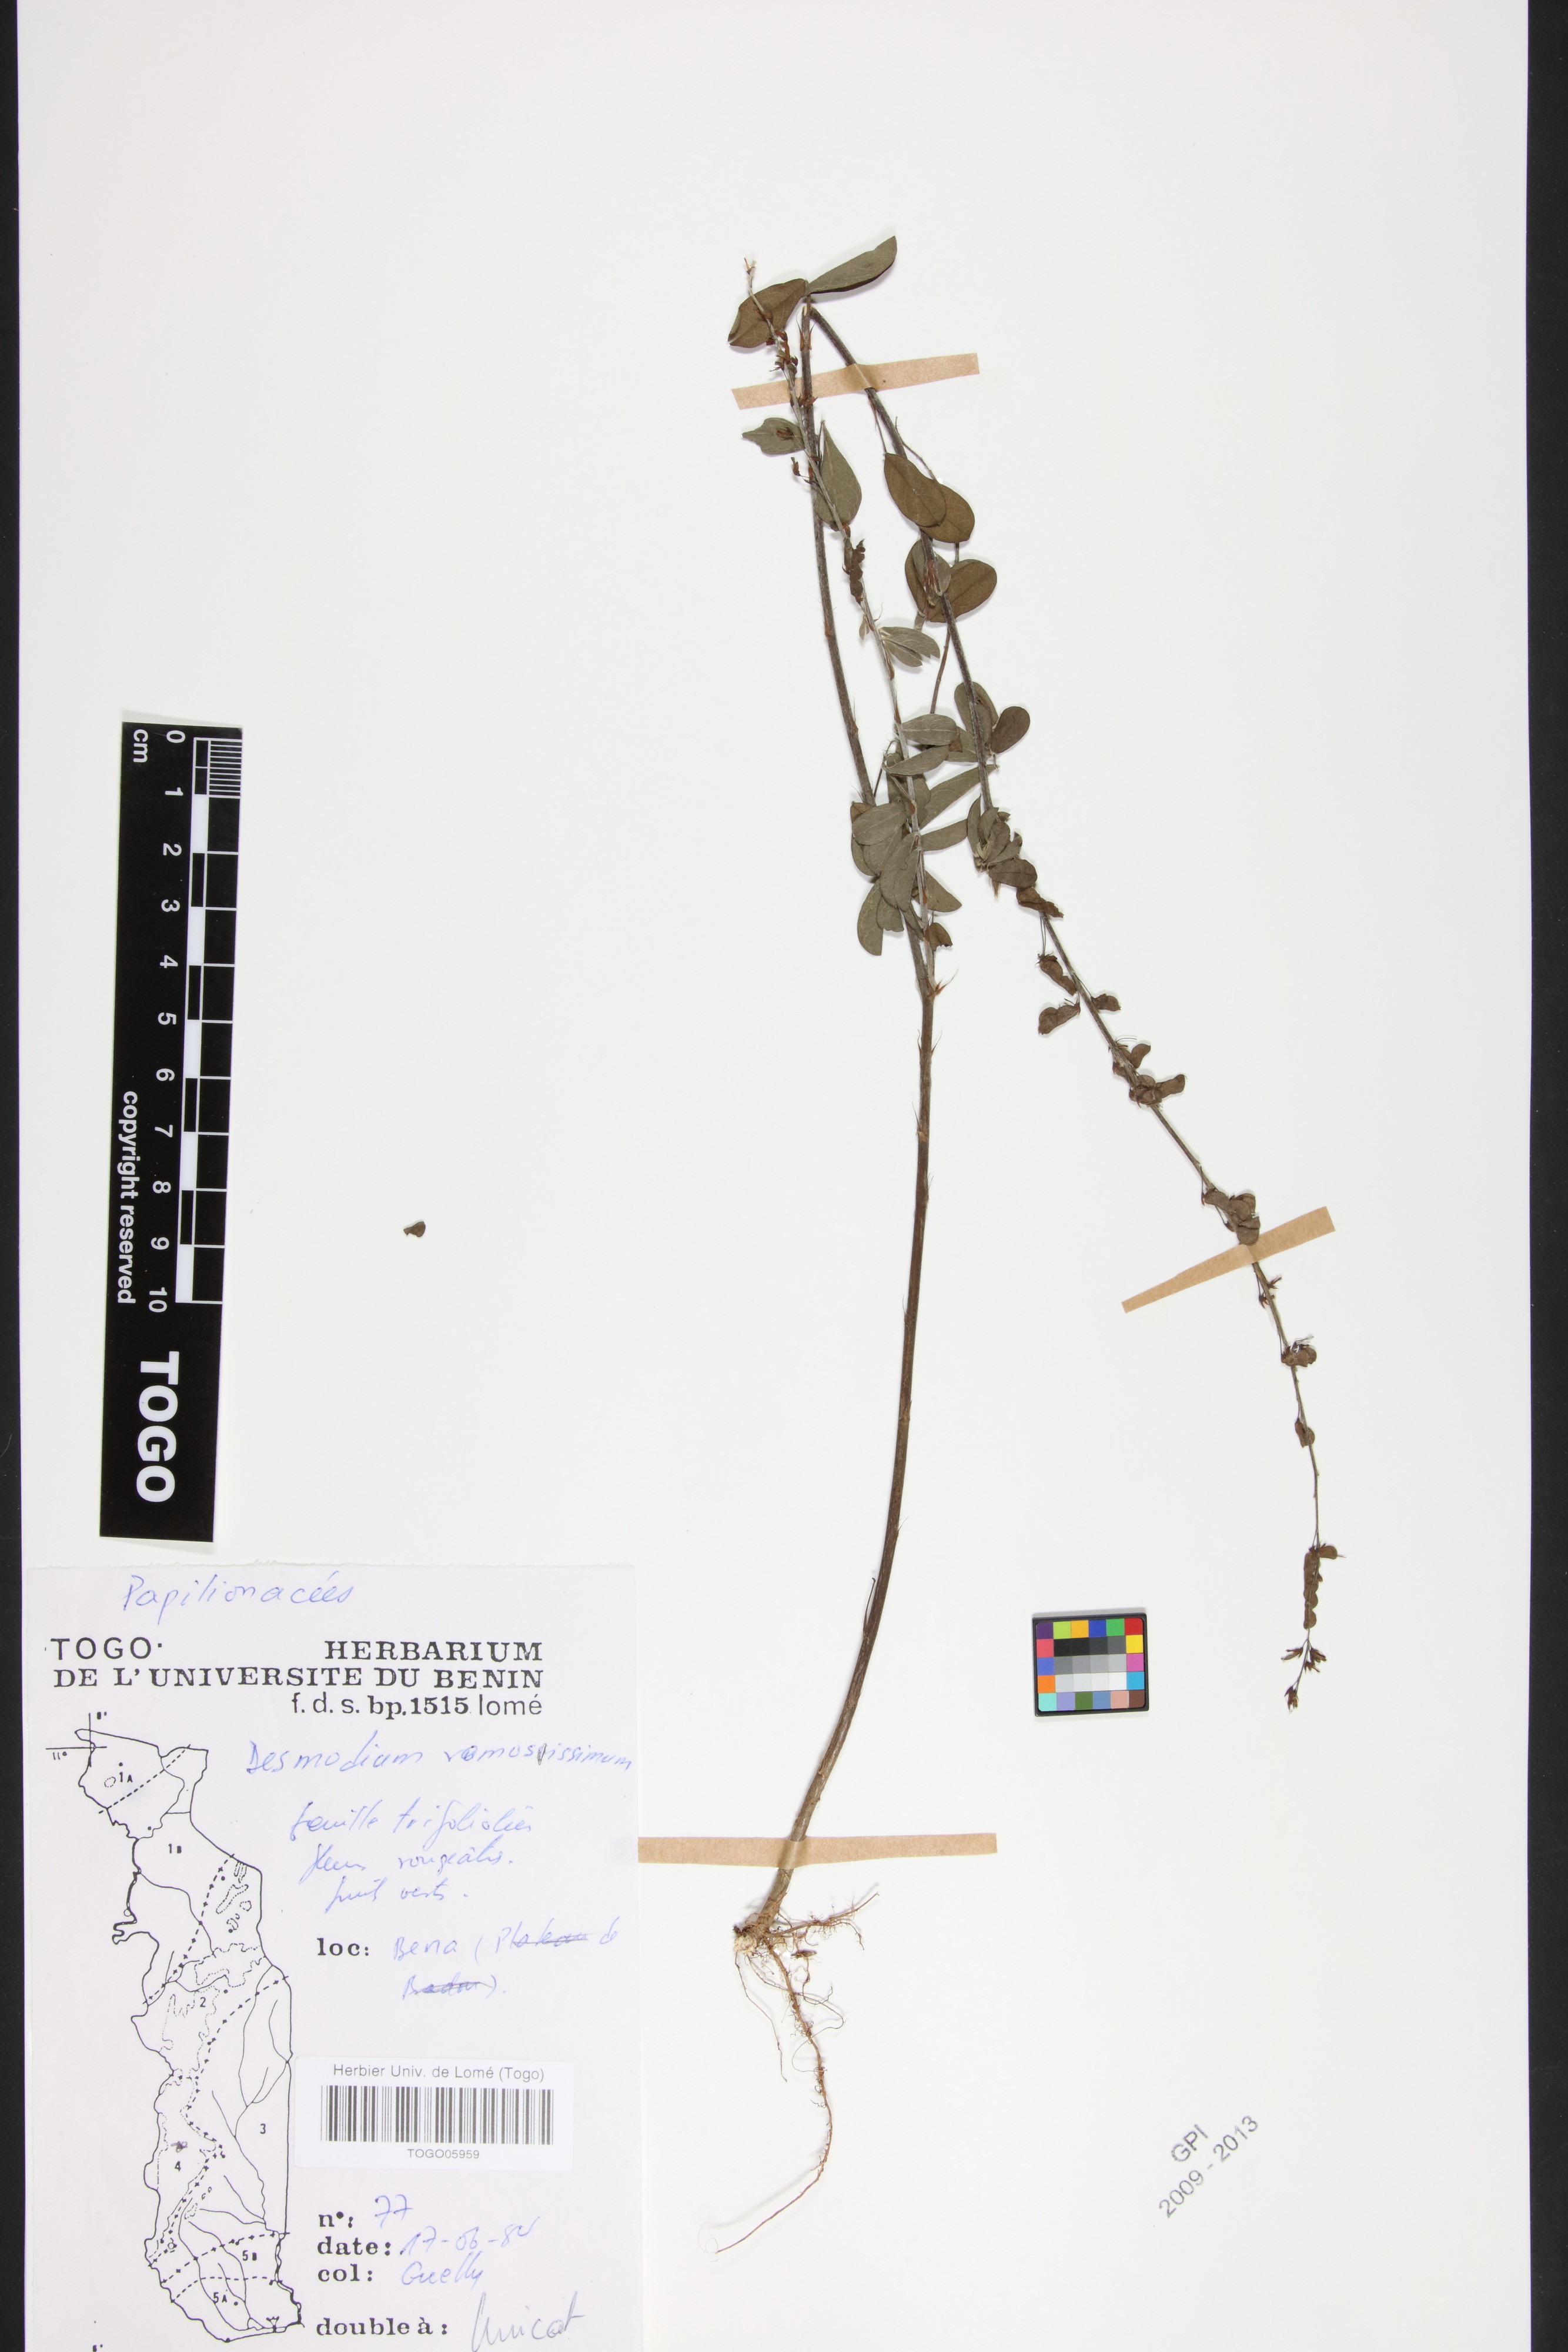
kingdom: Plantae
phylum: Tracheophyta
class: Magnoliopsida
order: Fabales
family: Fabaceae
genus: Grona
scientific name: Grona ramosissima
